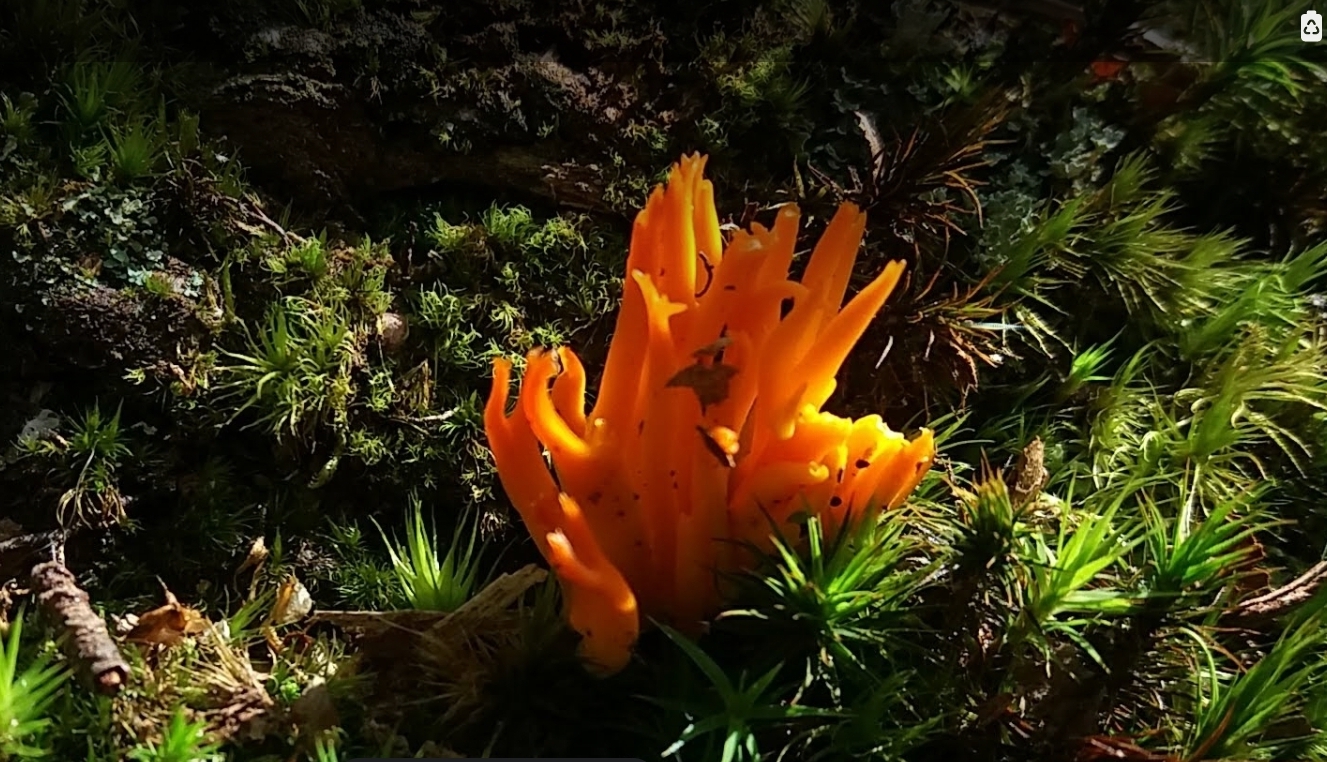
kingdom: Fungi
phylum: Basidiomycota
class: Dacrymycetes
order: Dacrymycetales
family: Dacrymycetaceae
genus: Calocera
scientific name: Calocera viscosa
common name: almindelig guldgaffel
